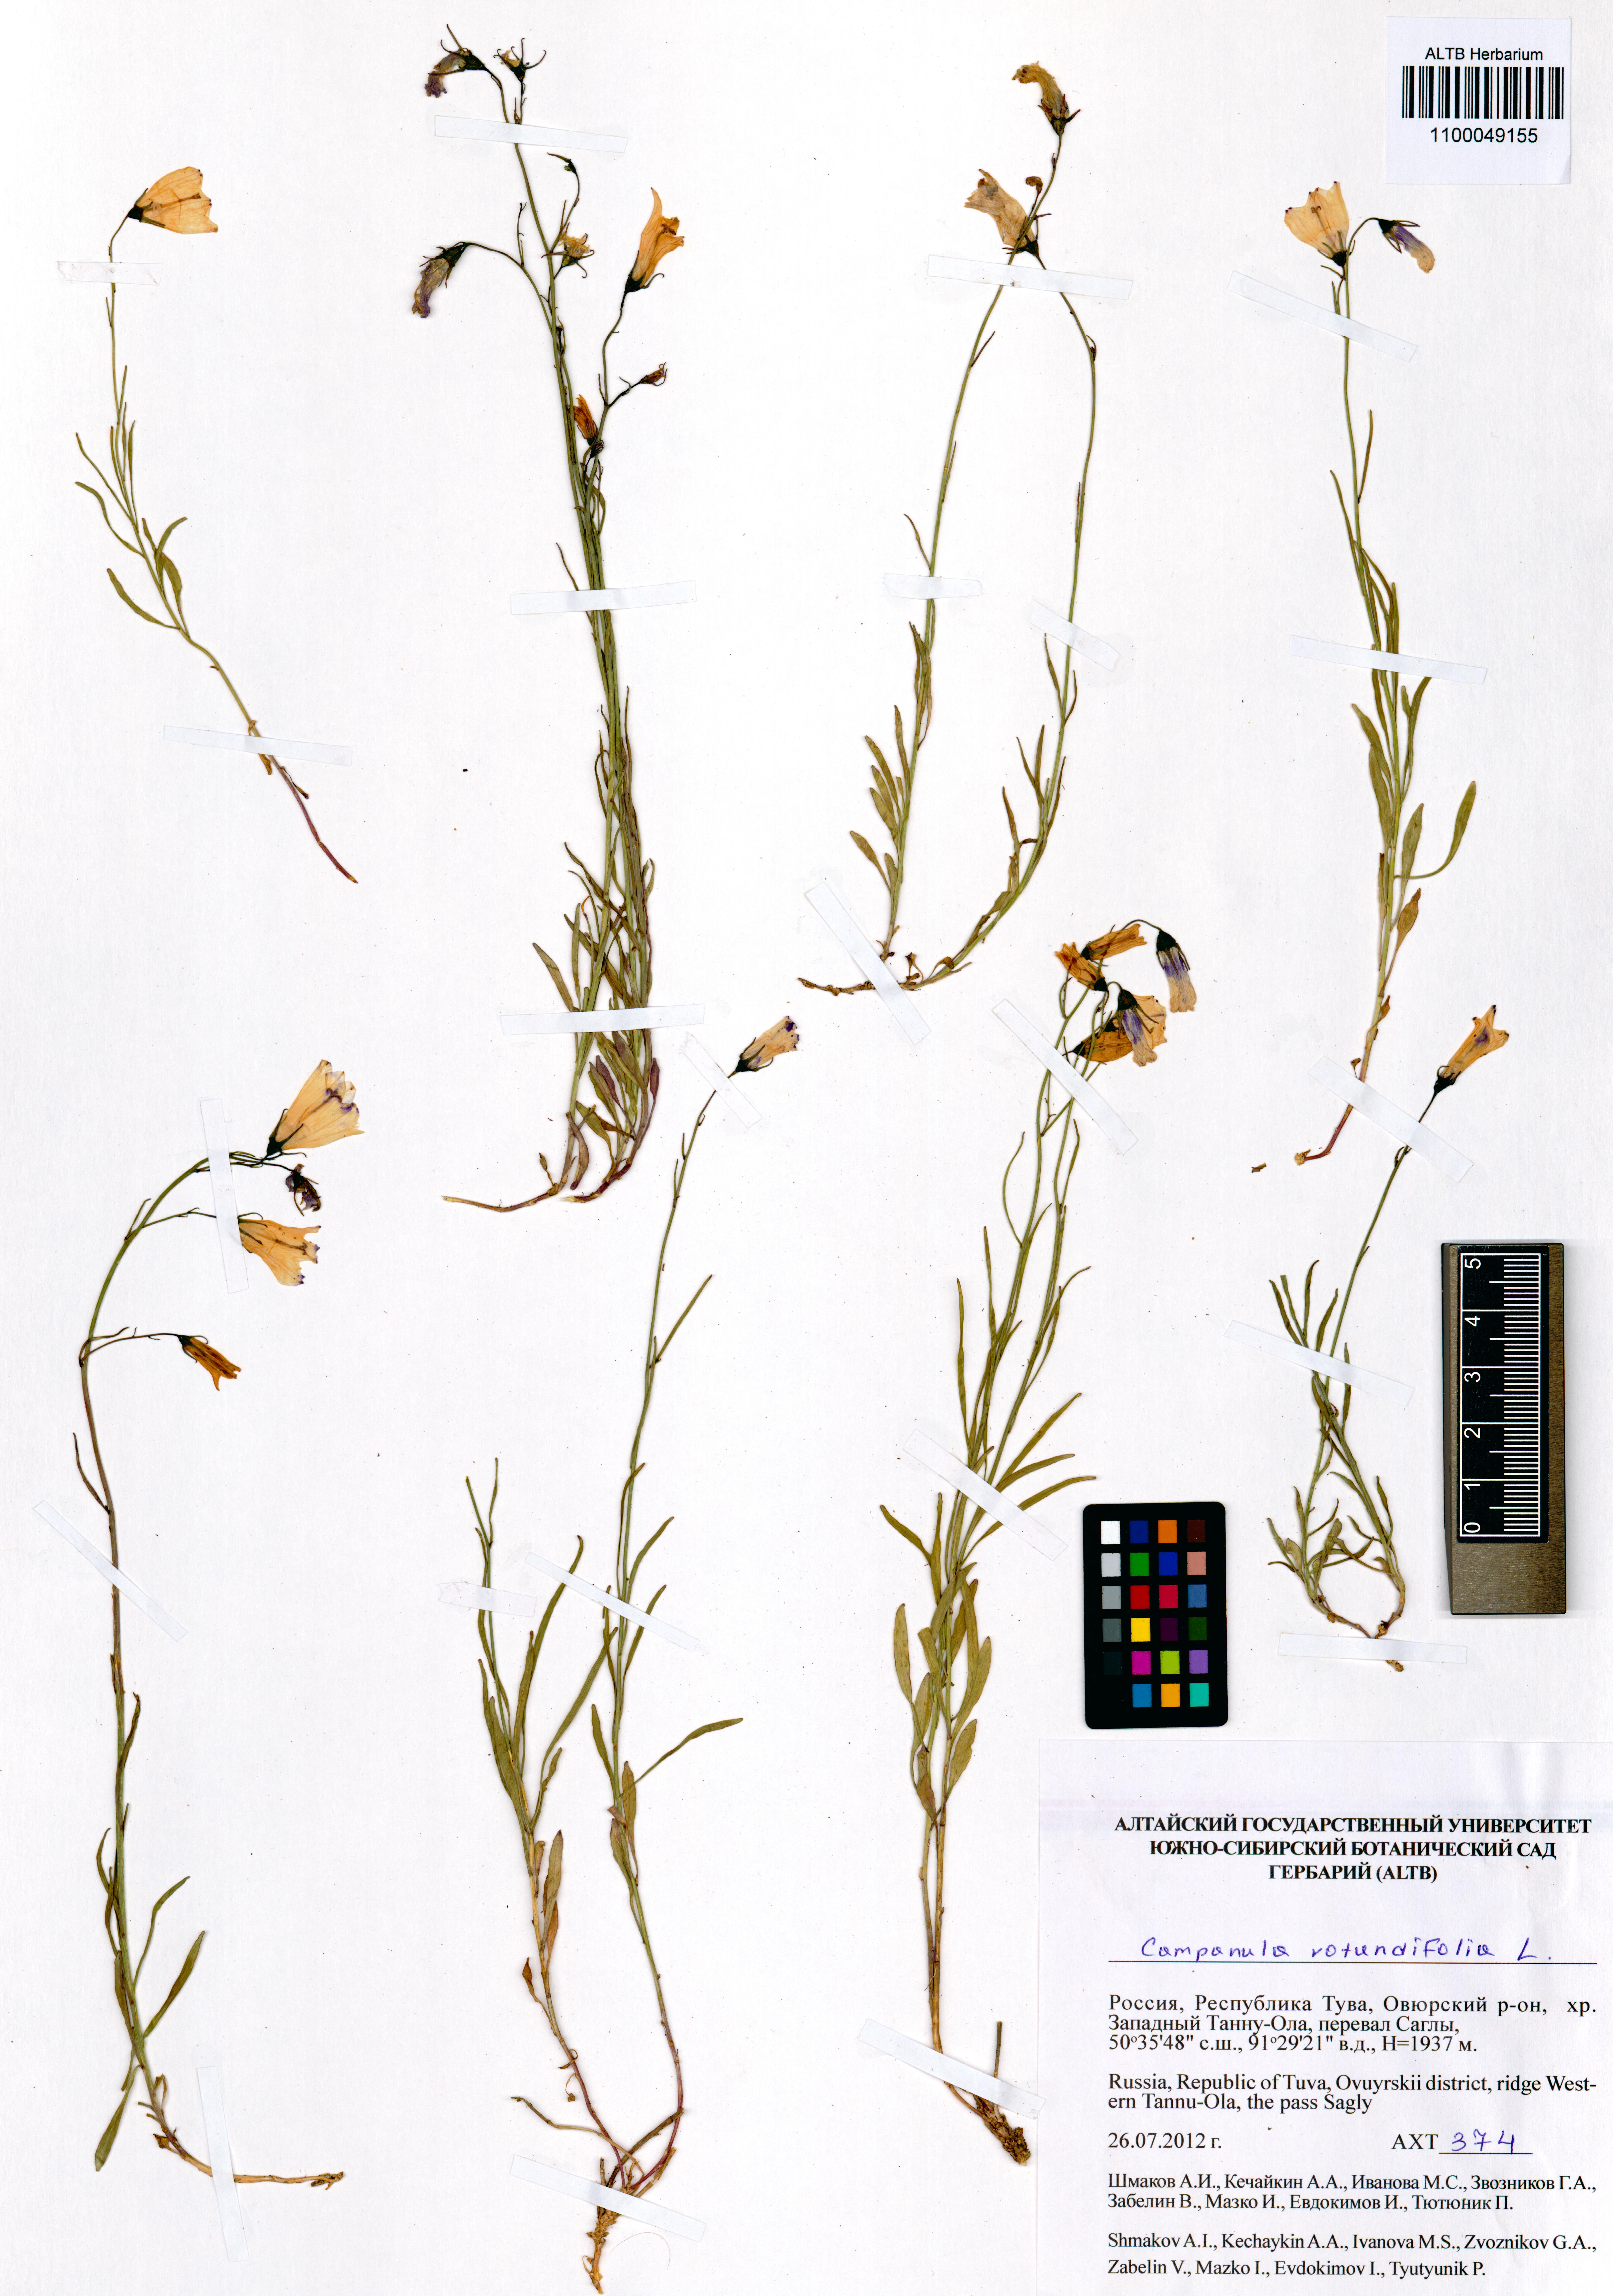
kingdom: Plantae
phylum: Tracheophyta
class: Magnoliopsida
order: Asterales
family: Campanulaceae
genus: Campanula
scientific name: Campanula rotundifolia
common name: Harebell
